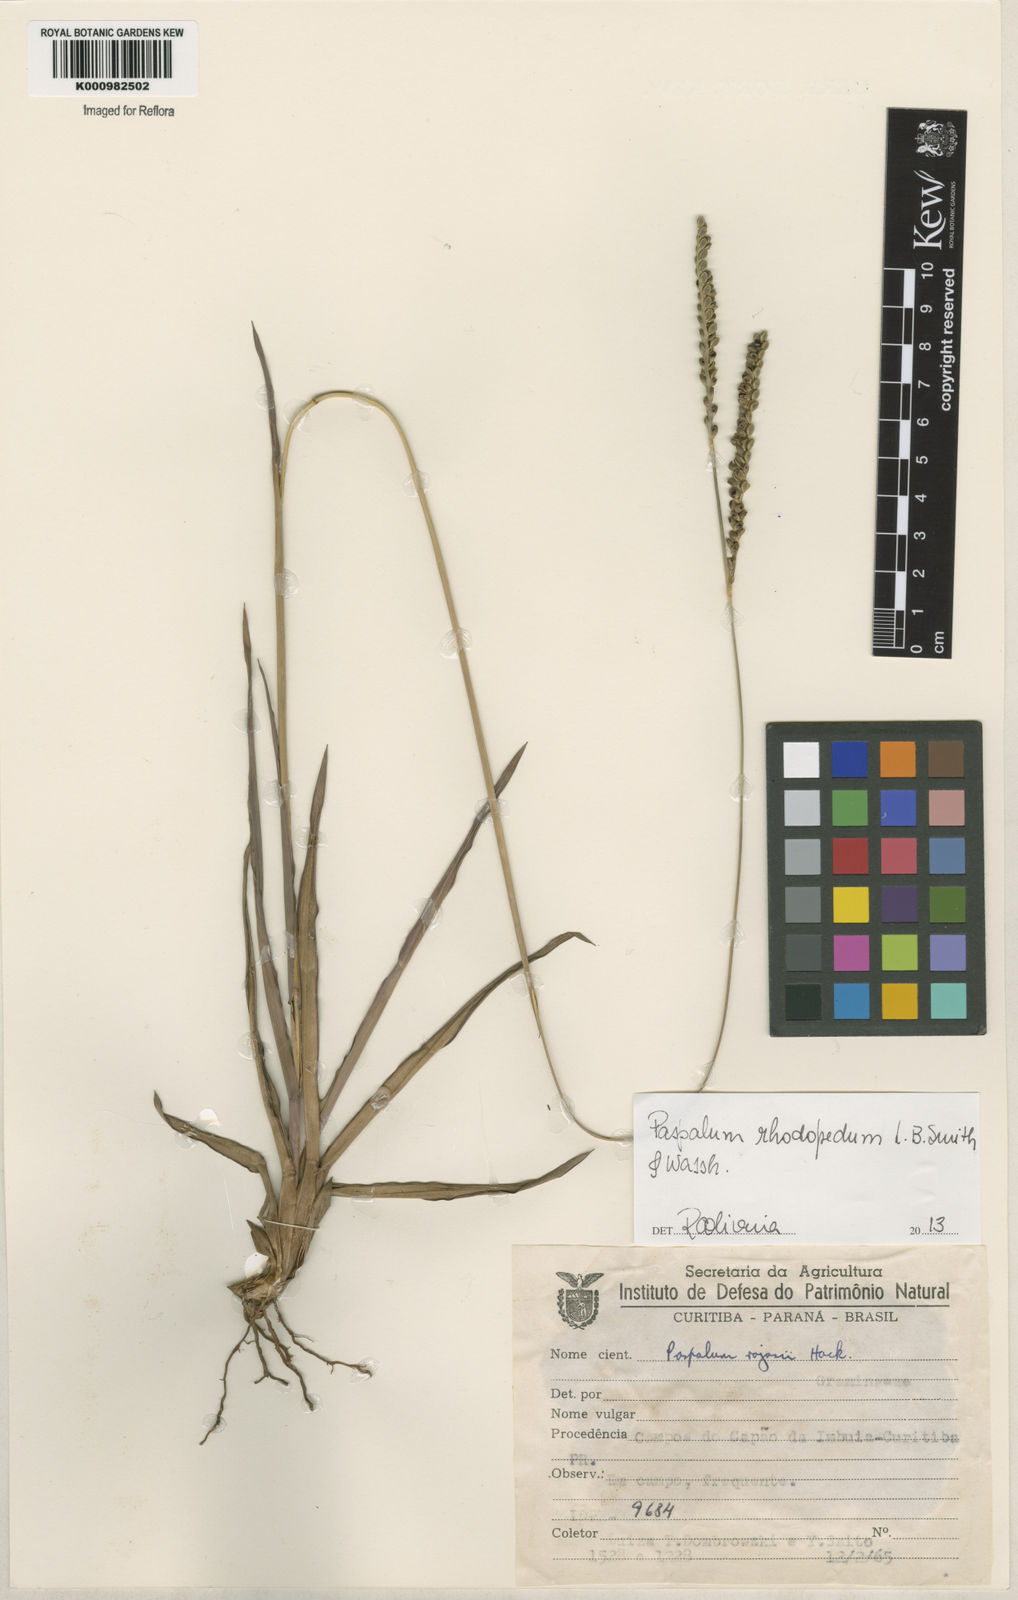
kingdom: Plantae
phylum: Tracheophyta
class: Liliopsida
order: Poales
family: Poaceae
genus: Paspalum
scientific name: Paspalum guenoarum
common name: Wintergreen paspalum
